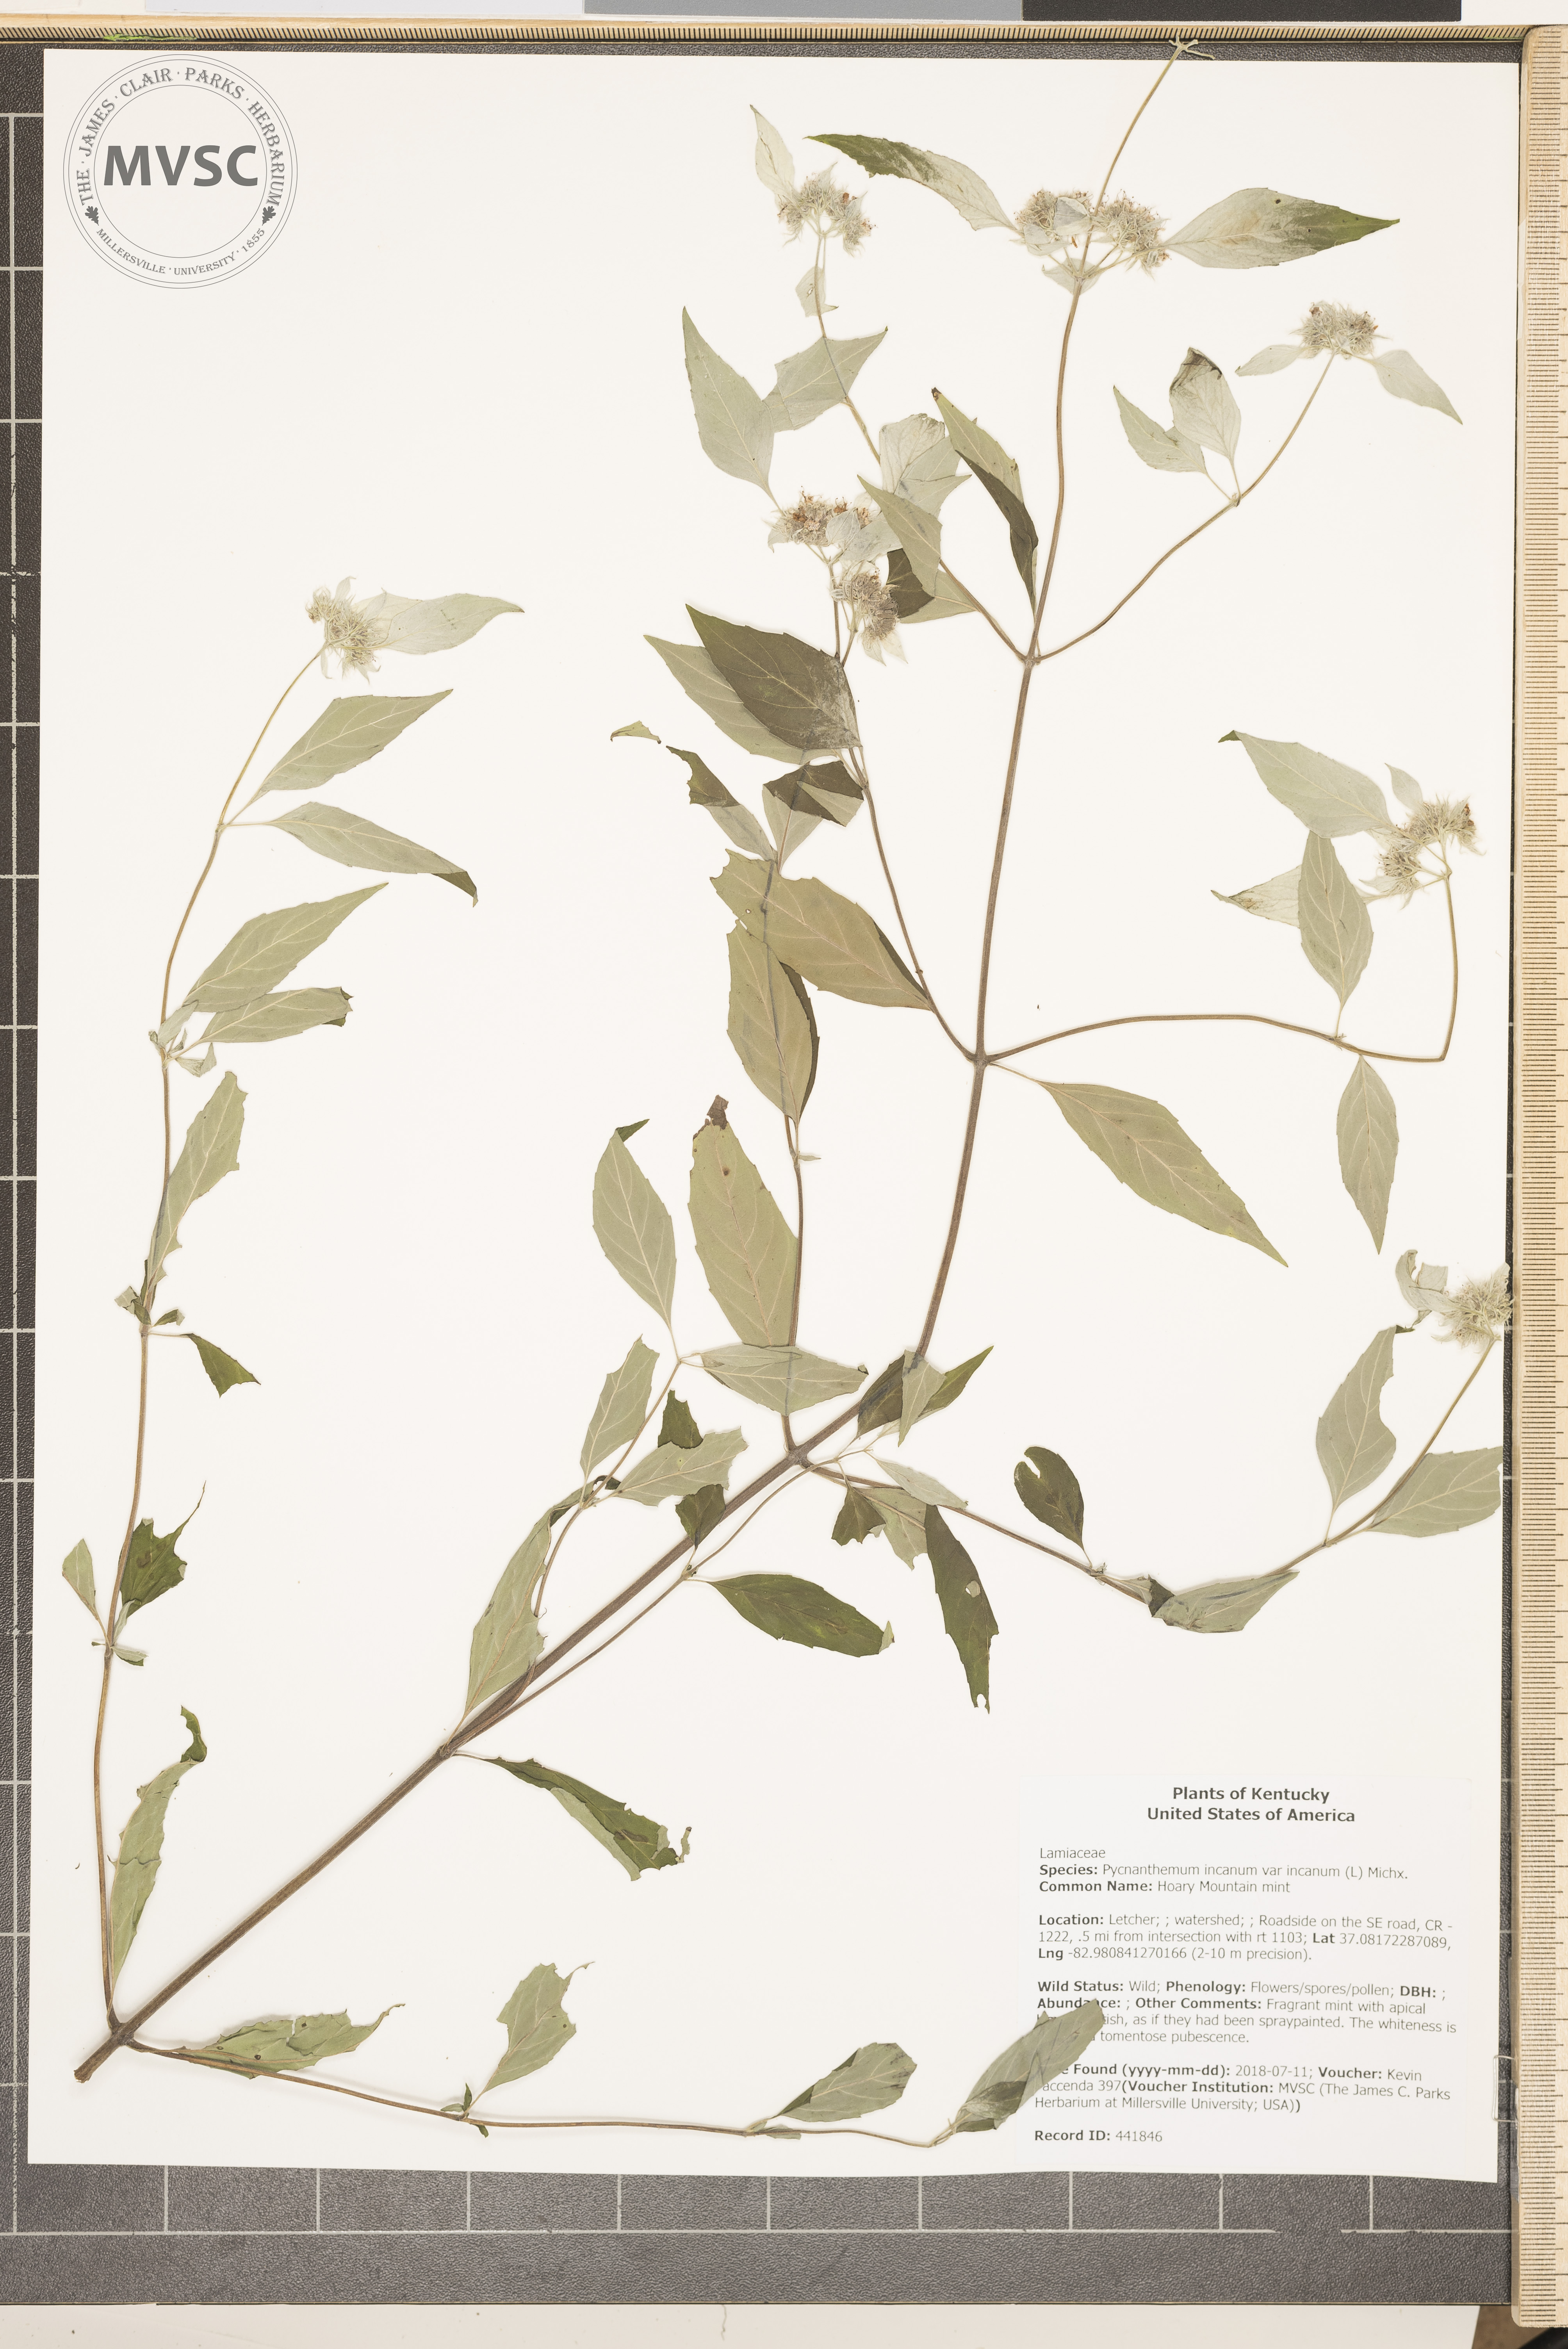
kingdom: Plantae
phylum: Tracheophyta
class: Magnoliopsida
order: Lamiales
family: Lamiaceae
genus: Pycnanthemum
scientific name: Pycnanthemum incanum
